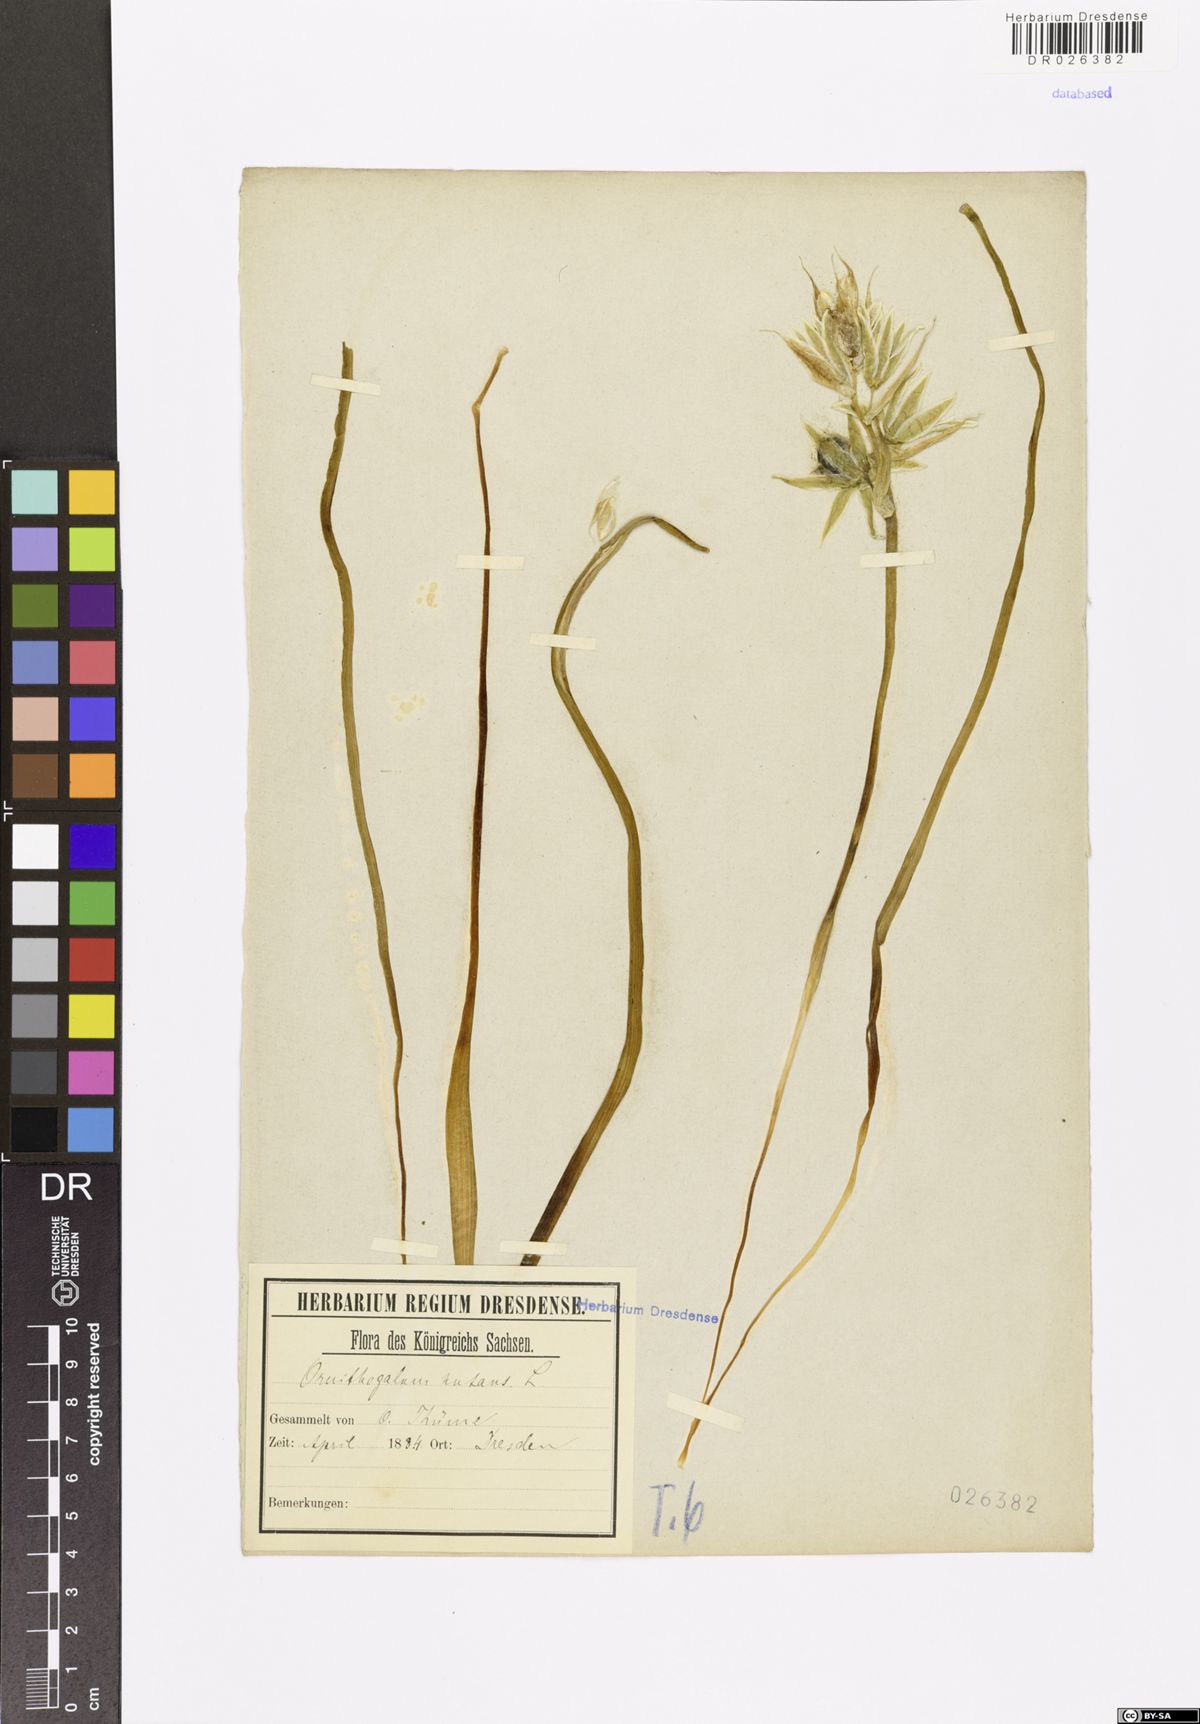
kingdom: Plantae
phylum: Tracheophyta
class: Liliopsida
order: Asparagales
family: Asparagaceae
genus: Ornithogalum
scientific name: Ornithogalum nutans
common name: Drooping star-of-bethlehem
